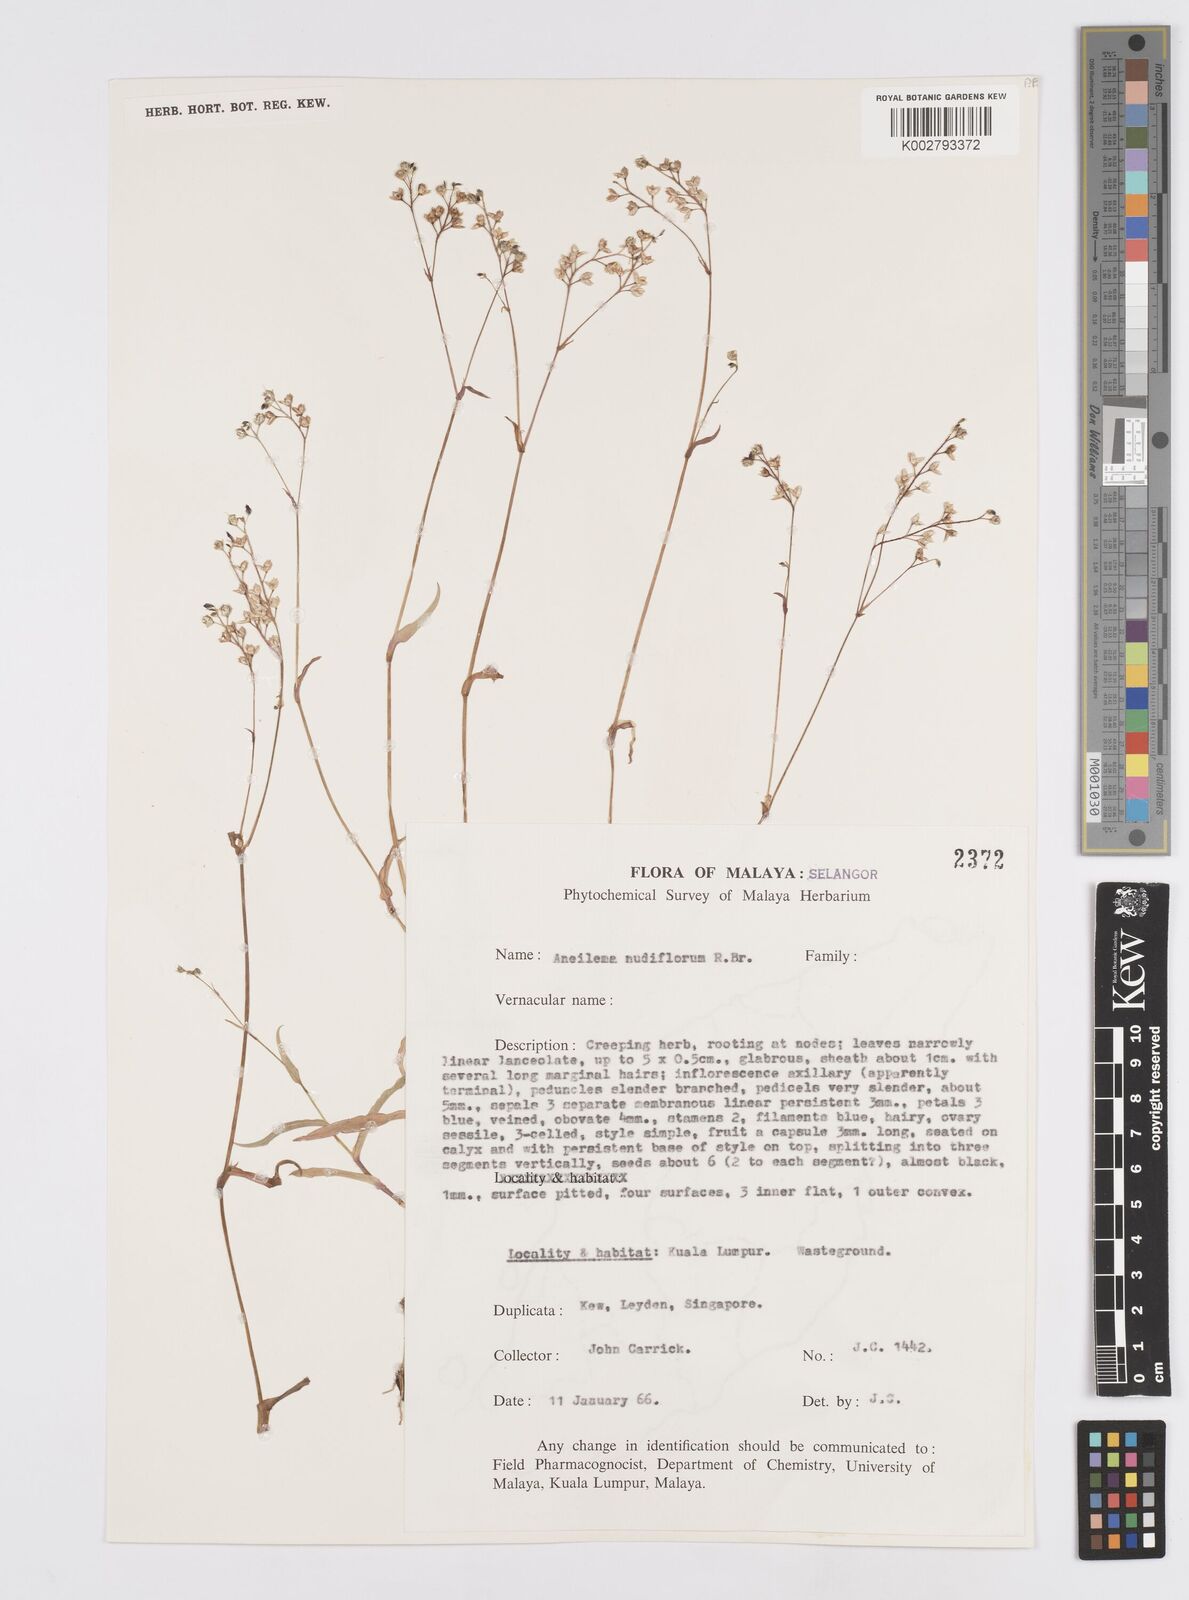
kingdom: Plantae
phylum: Tracheophyta
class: Liliopsida
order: Commelinales
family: Commelinaceae
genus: Murdannia
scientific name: Murdannia nudiflora
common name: Nakedstem dewflower
